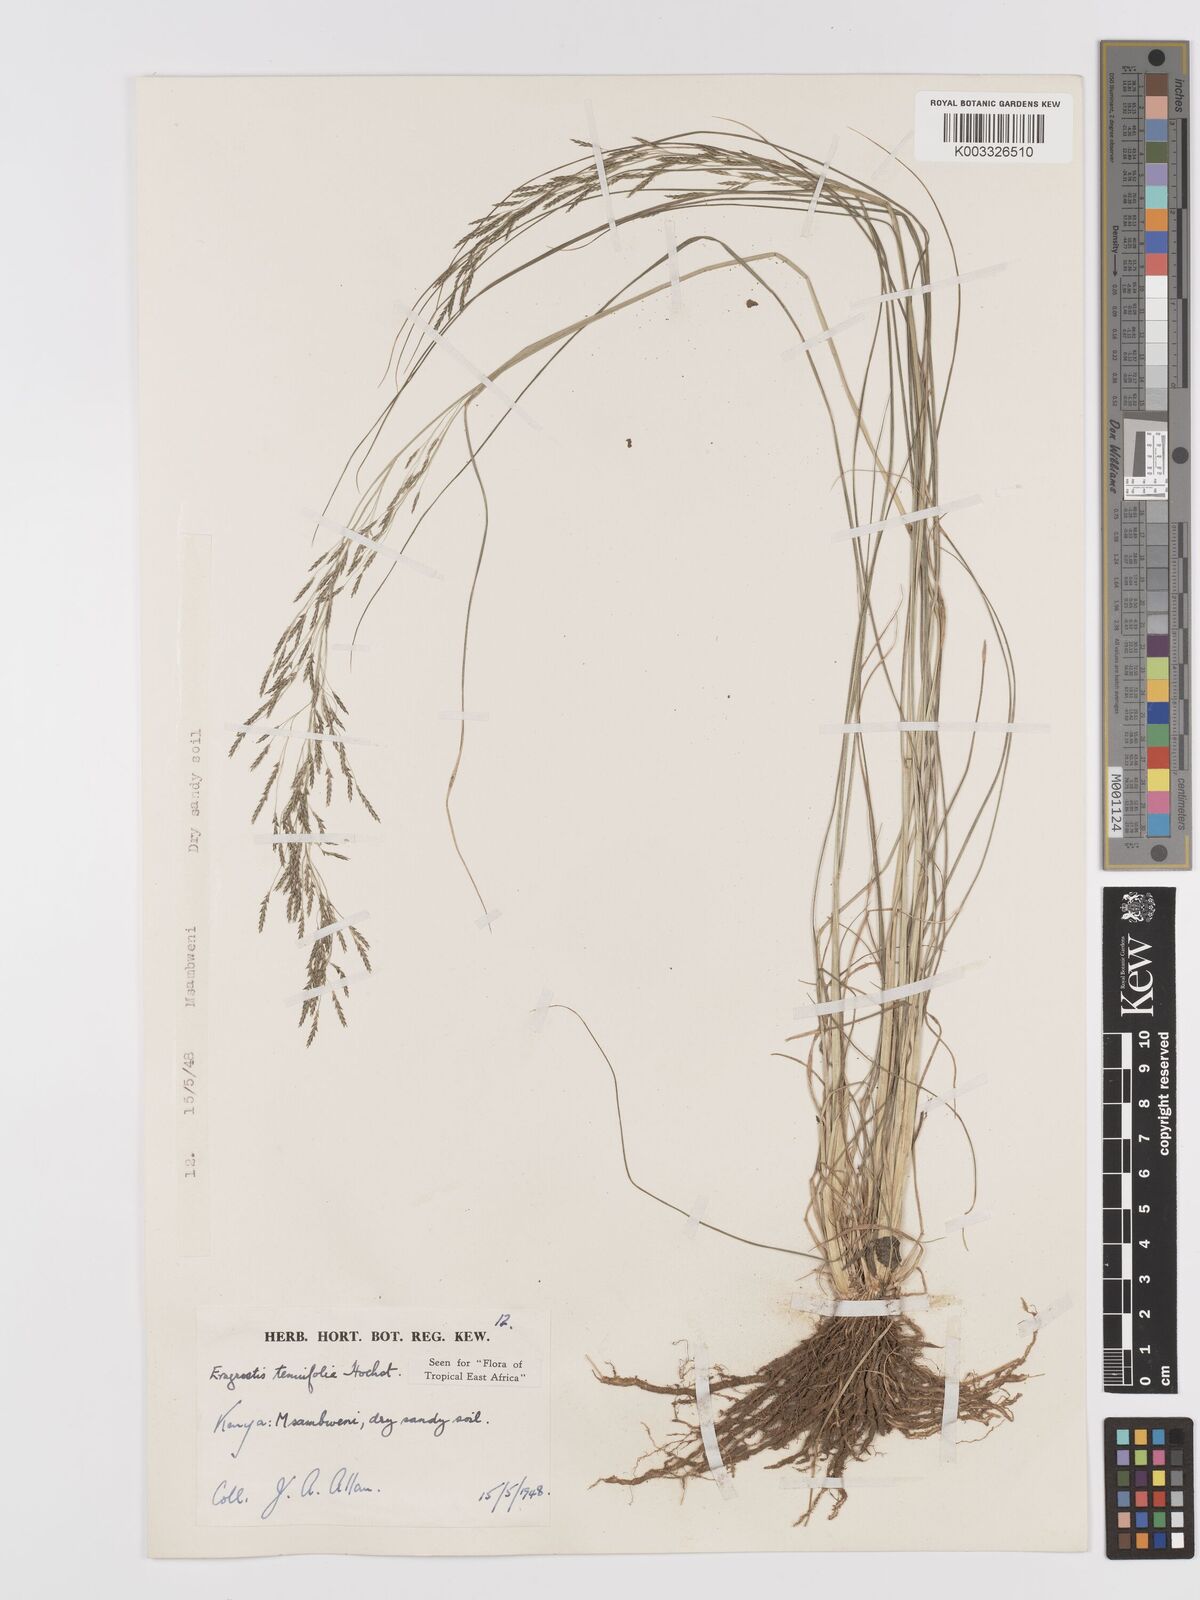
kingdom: Plantae
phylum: Tracheophyta
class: Liliopsida
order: Poales
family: Poaceae
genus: Eragrostis
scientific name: Eragrostis tenuifolia
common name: Elastic grass
